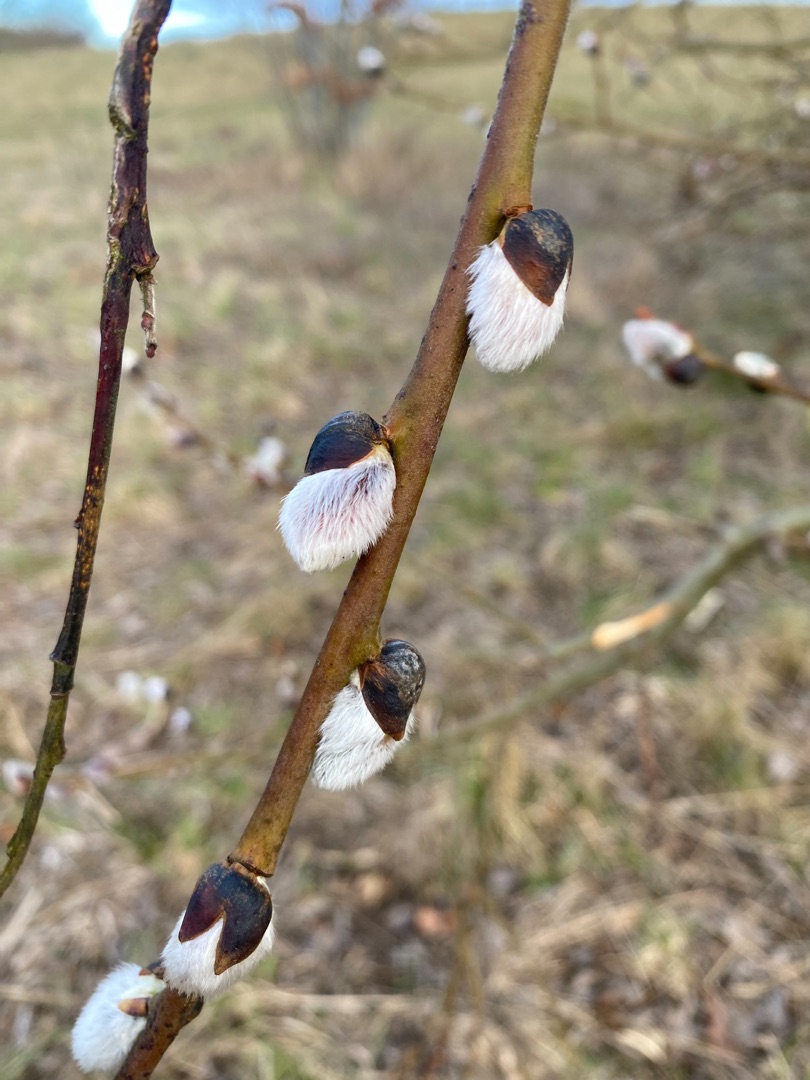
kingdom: Plantae
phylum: Tracheophyta
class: Magnoliopsida
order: Malpighiales
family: Salicaceae
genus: Salix
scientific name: Salix
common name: Pileslægten
